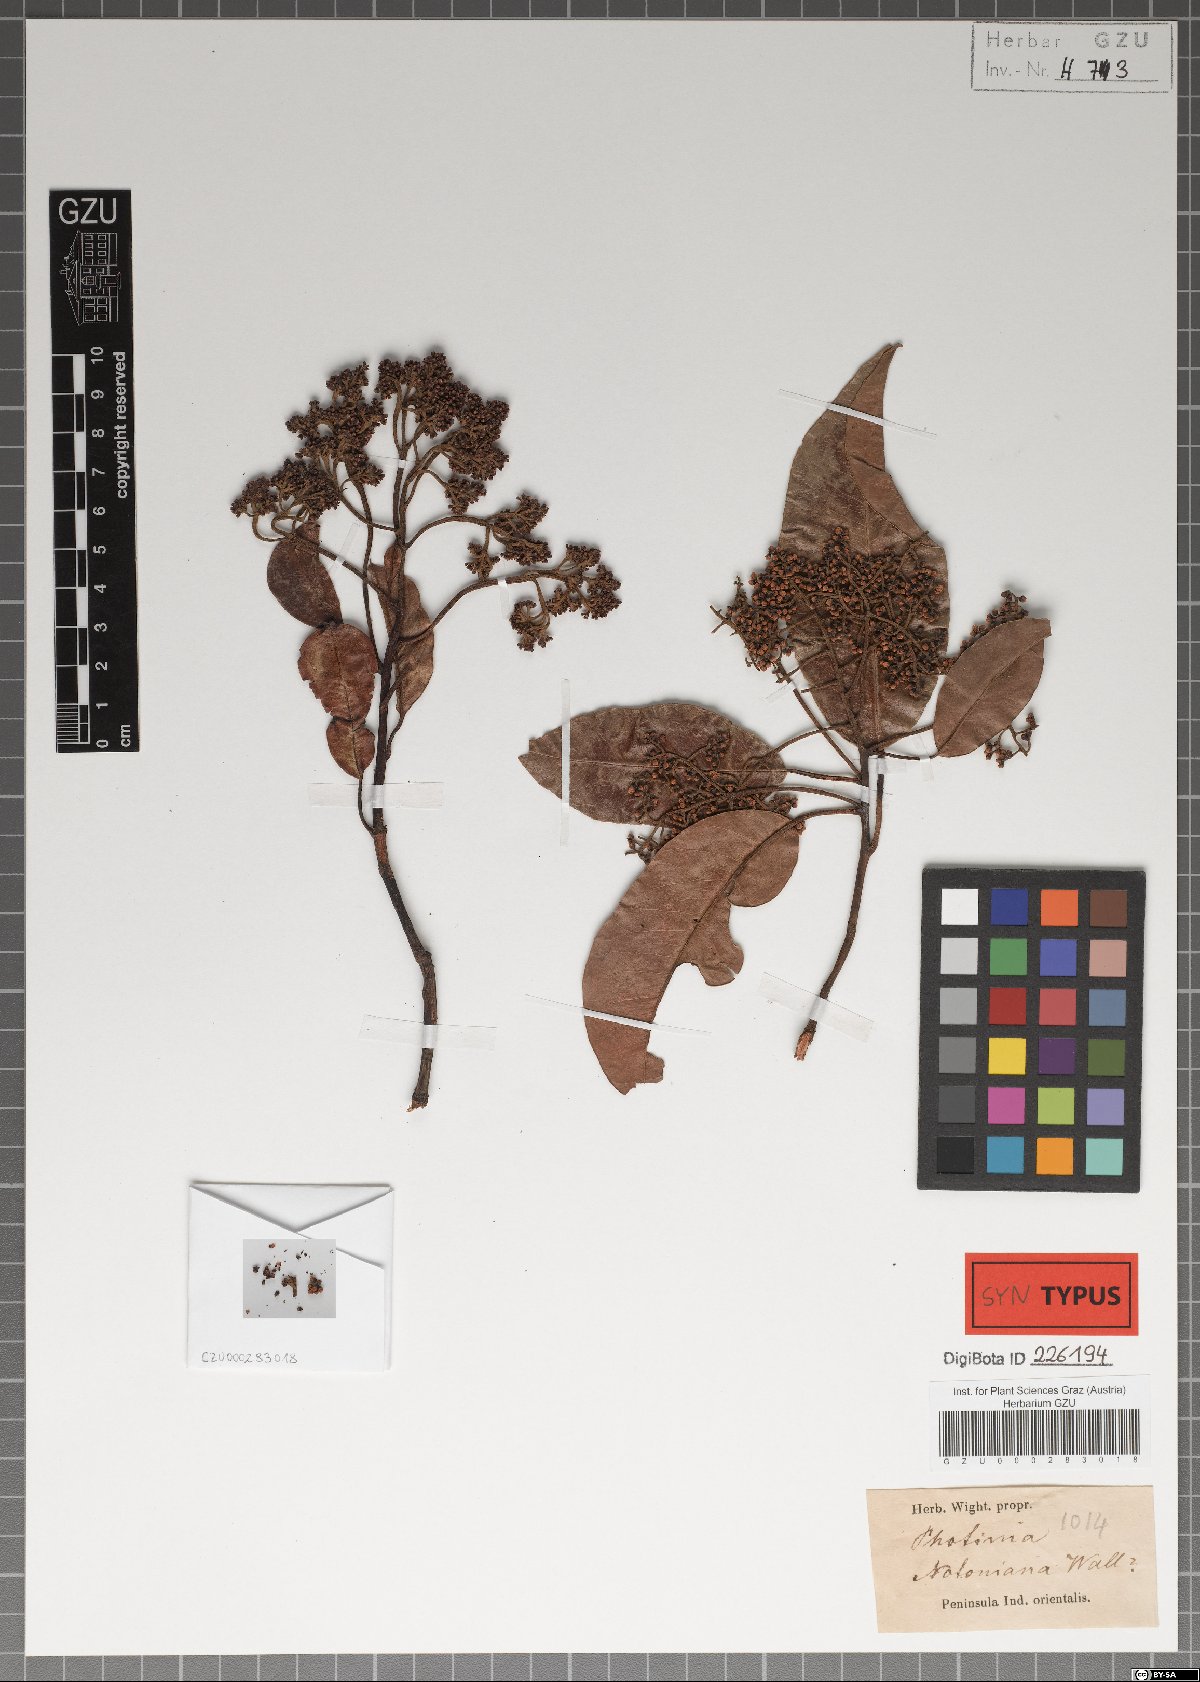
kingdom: Plantae
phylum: Tracheophyta
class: Magnoliopsida
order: Rosales
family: Rosaceae
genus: Photinia
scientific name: Photinia integrifolia
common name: Himalayan chokeberry
